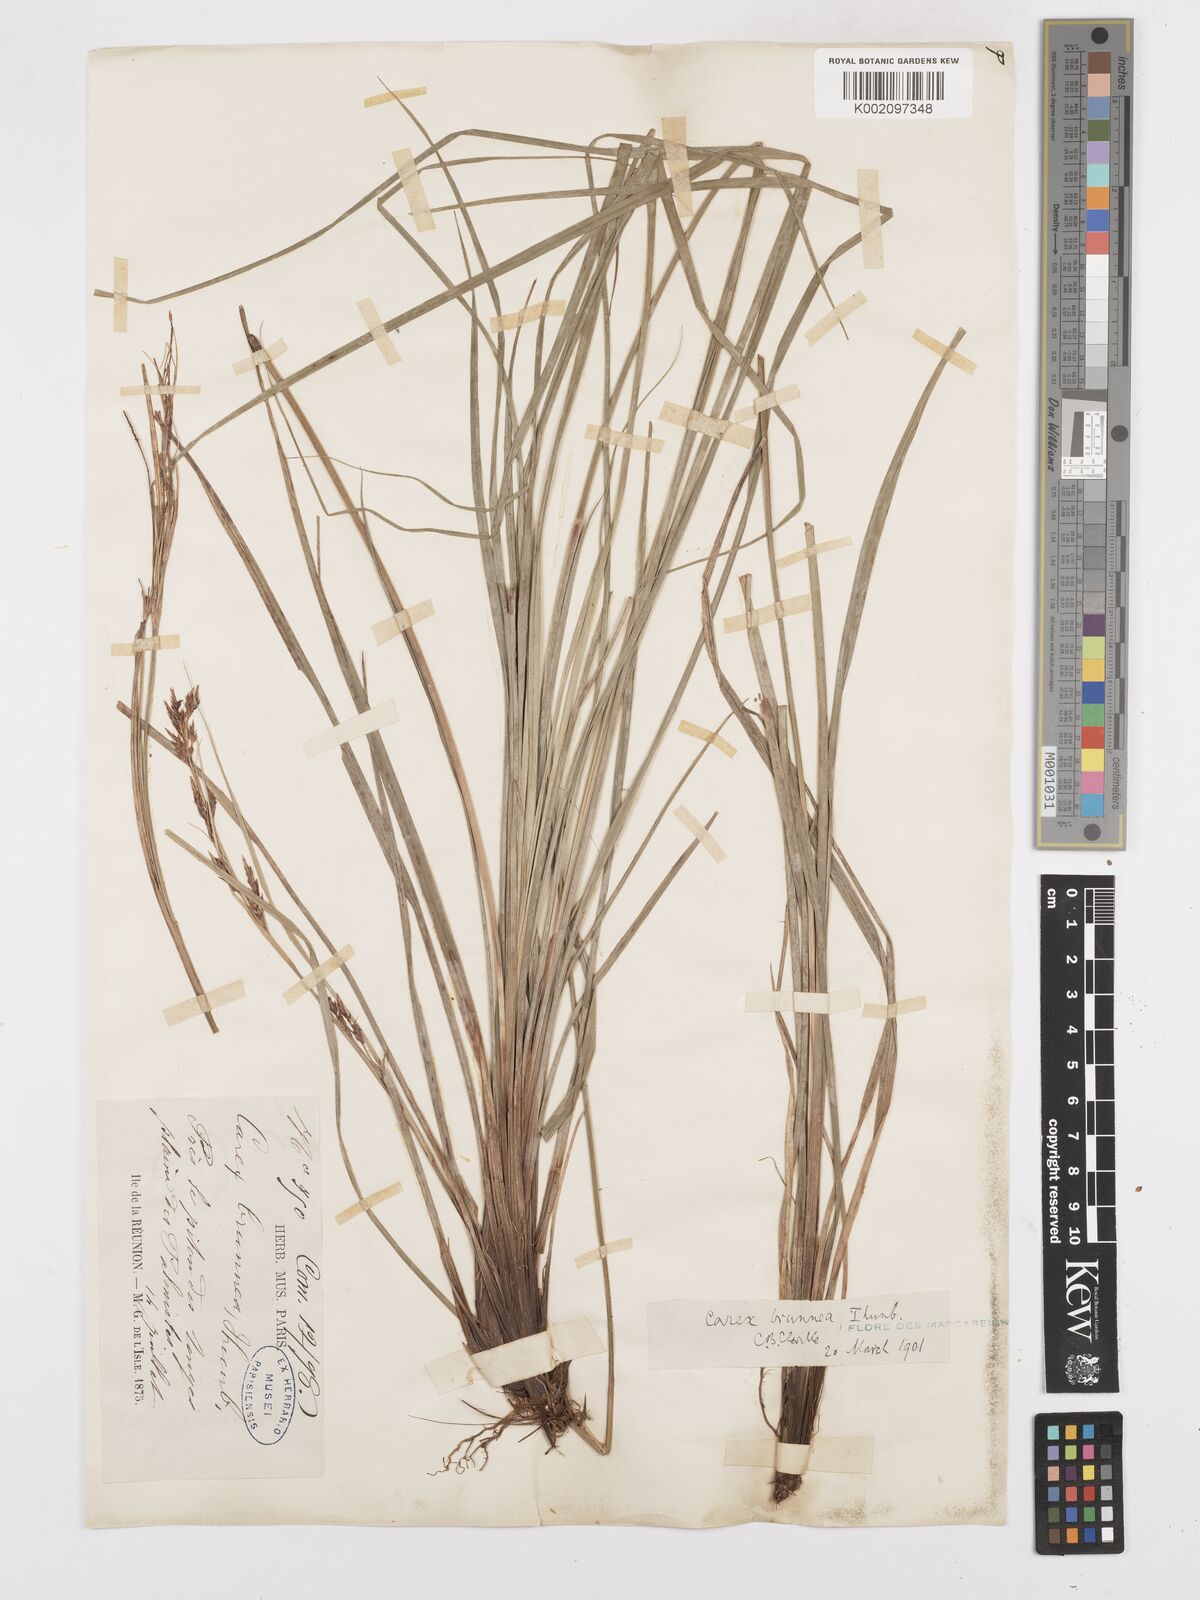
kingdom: Plantae
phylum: Tracheophyta
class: Liliopsida
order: Poales
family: Cyperaceae
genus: Carex
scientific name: Carex brunnea
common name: Greater brown sedge
